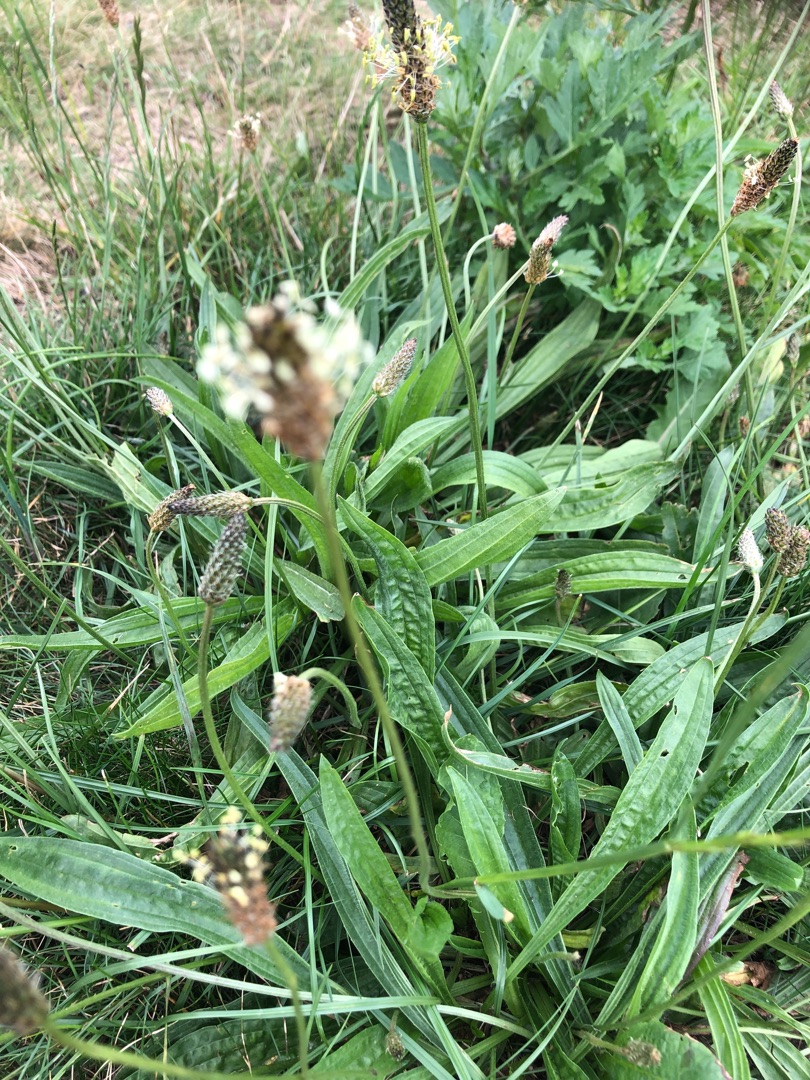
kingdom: Plantae
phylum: Tracheophyta
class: Magnoliopsida
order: Lamiales
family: Plantaginaceae
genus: Plantago
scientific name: Plantago lanceolata
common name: Lancet-vejbred
